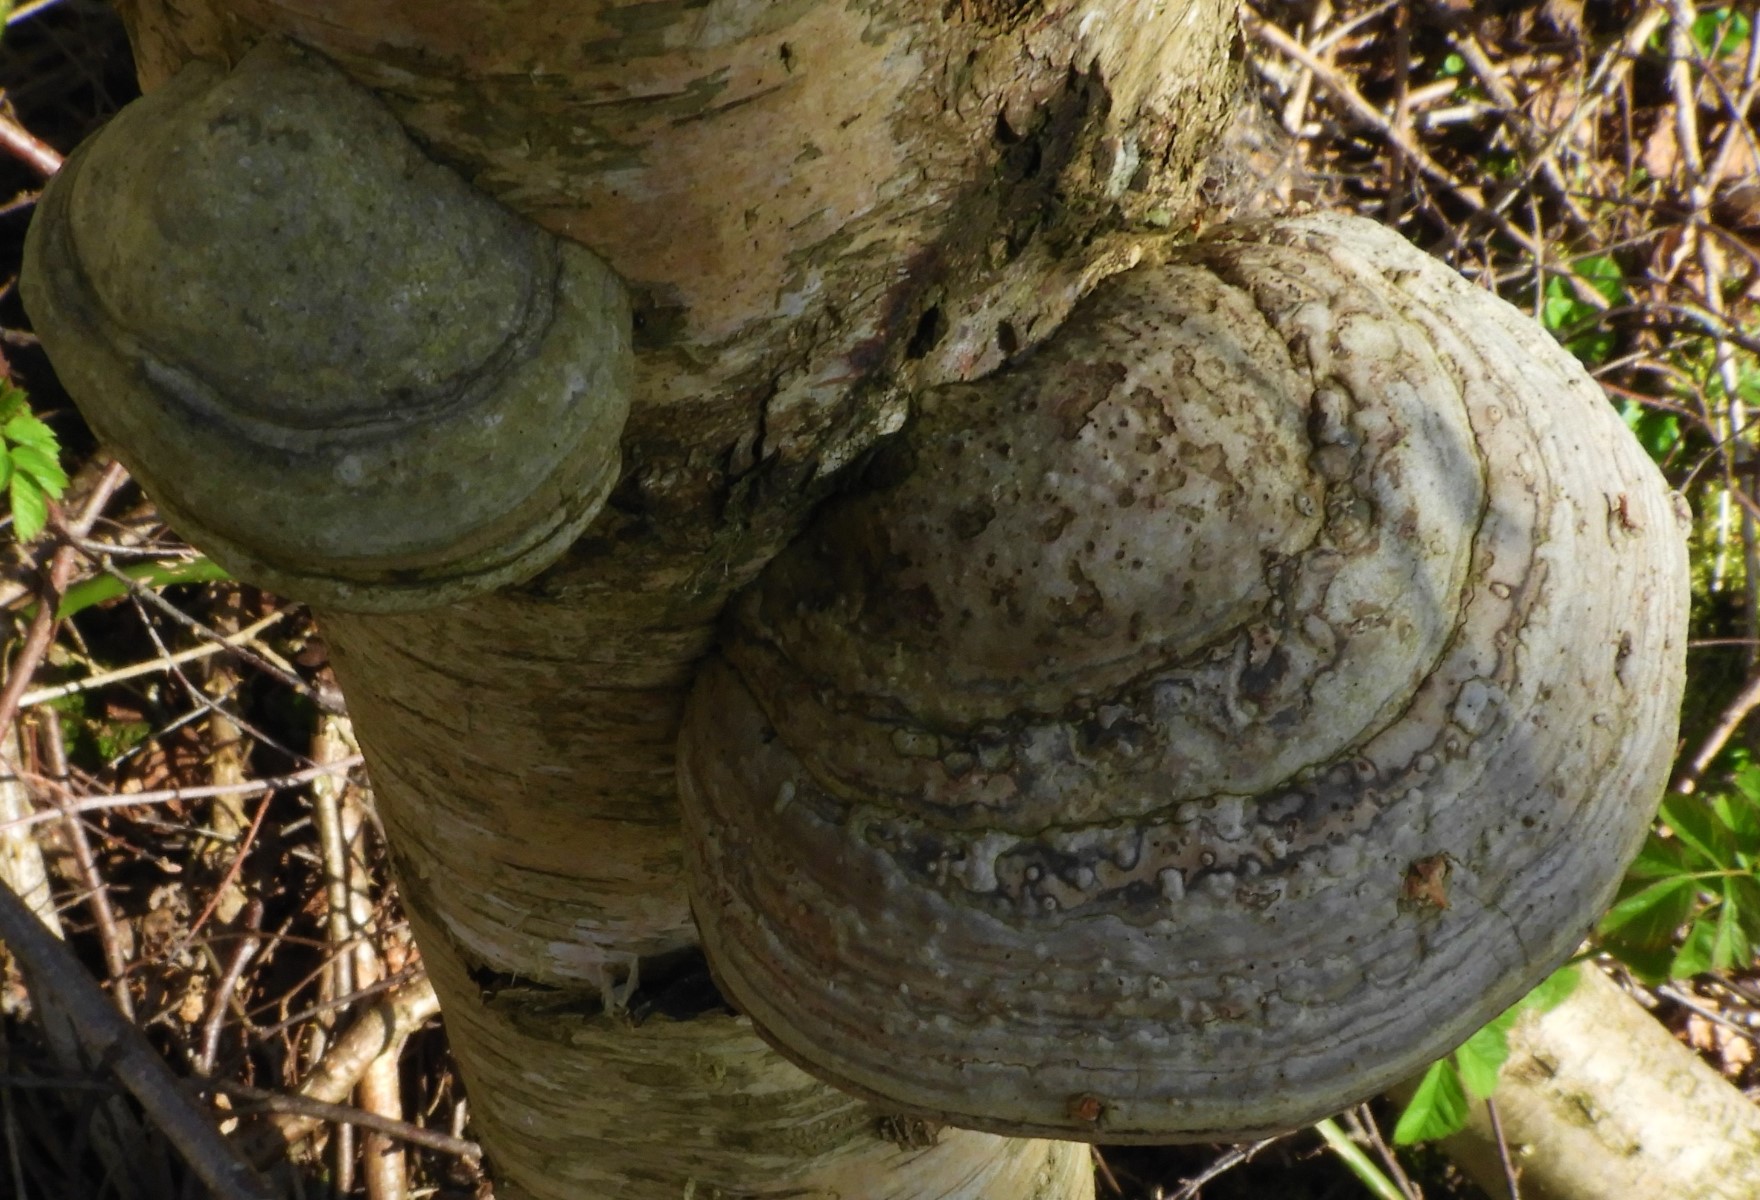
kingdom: Fungi
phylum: Basidiomycota
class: Agaricomycetes
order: Polyporales
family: Polyporaceae
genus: Fomes
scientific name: Fomes fomentarius
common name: tøndersvamp
